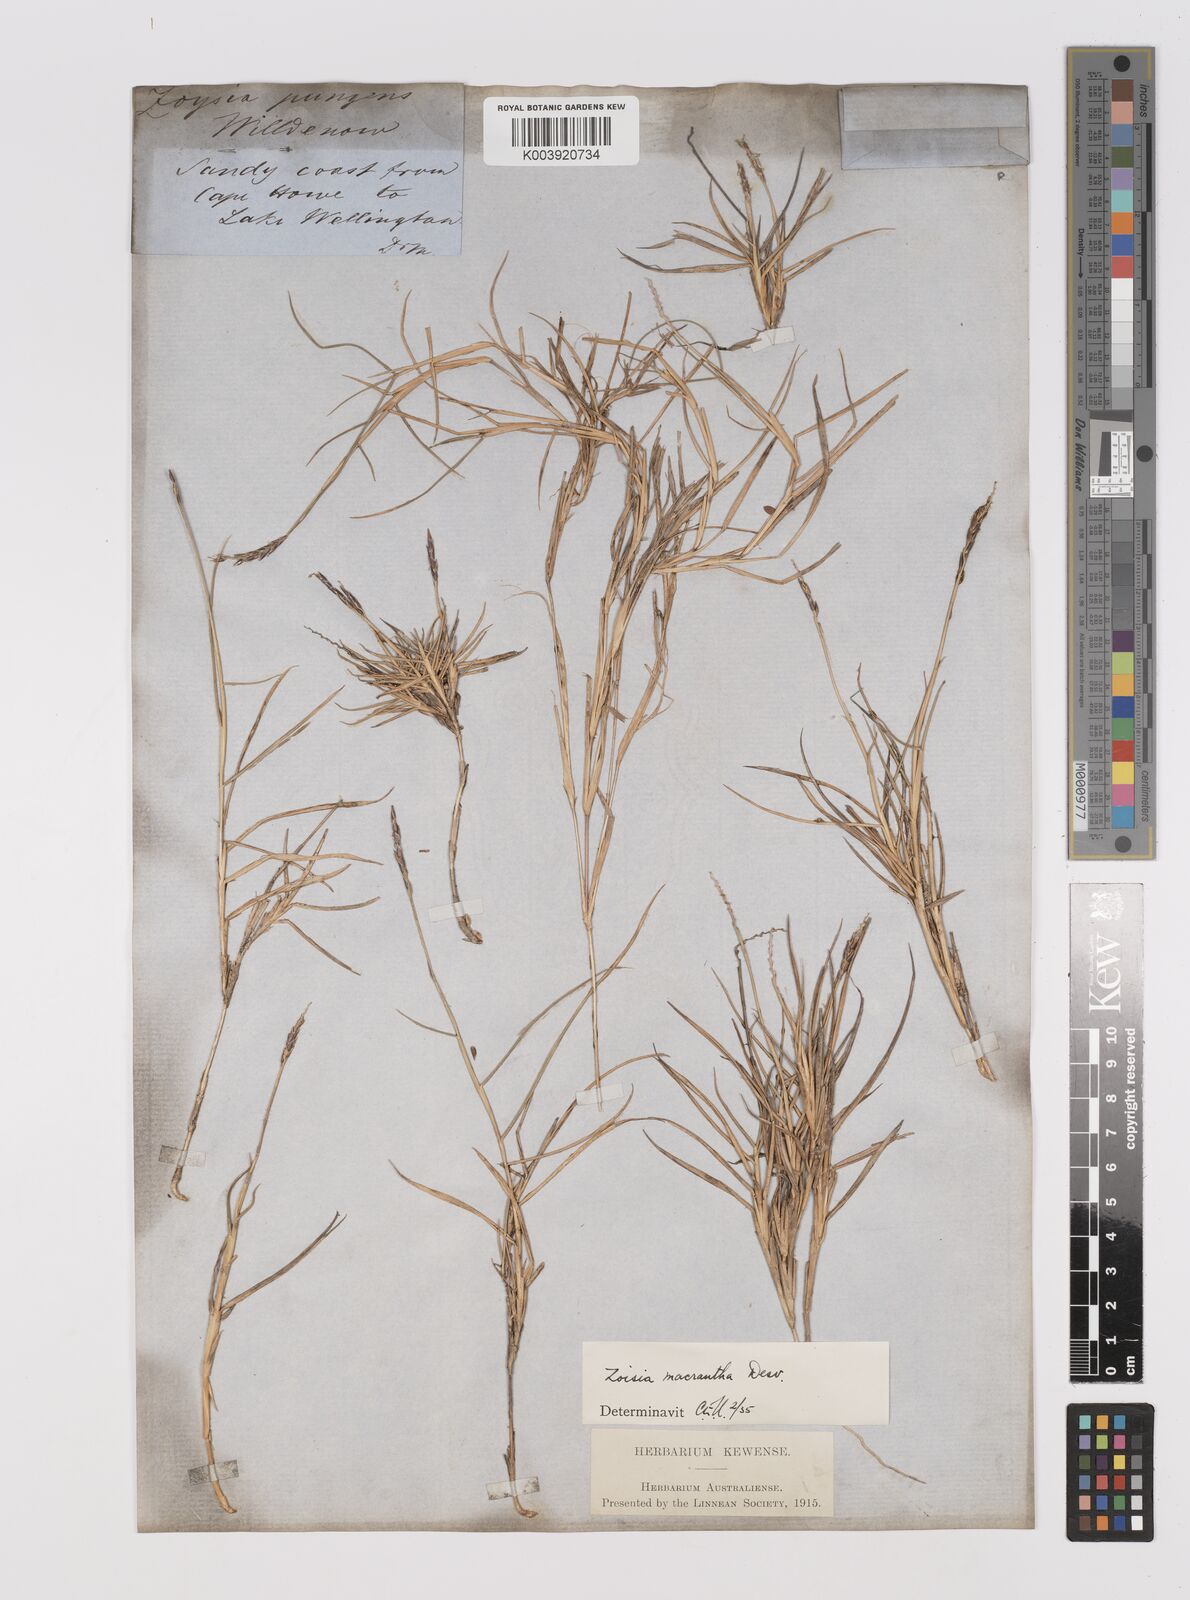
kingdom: Plantae
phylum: Tracheophyta
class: Liliopsida
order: Poales
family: Poaceae
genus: Zoysia
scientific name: Zoysia macrantha
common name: Korean lawn grass
